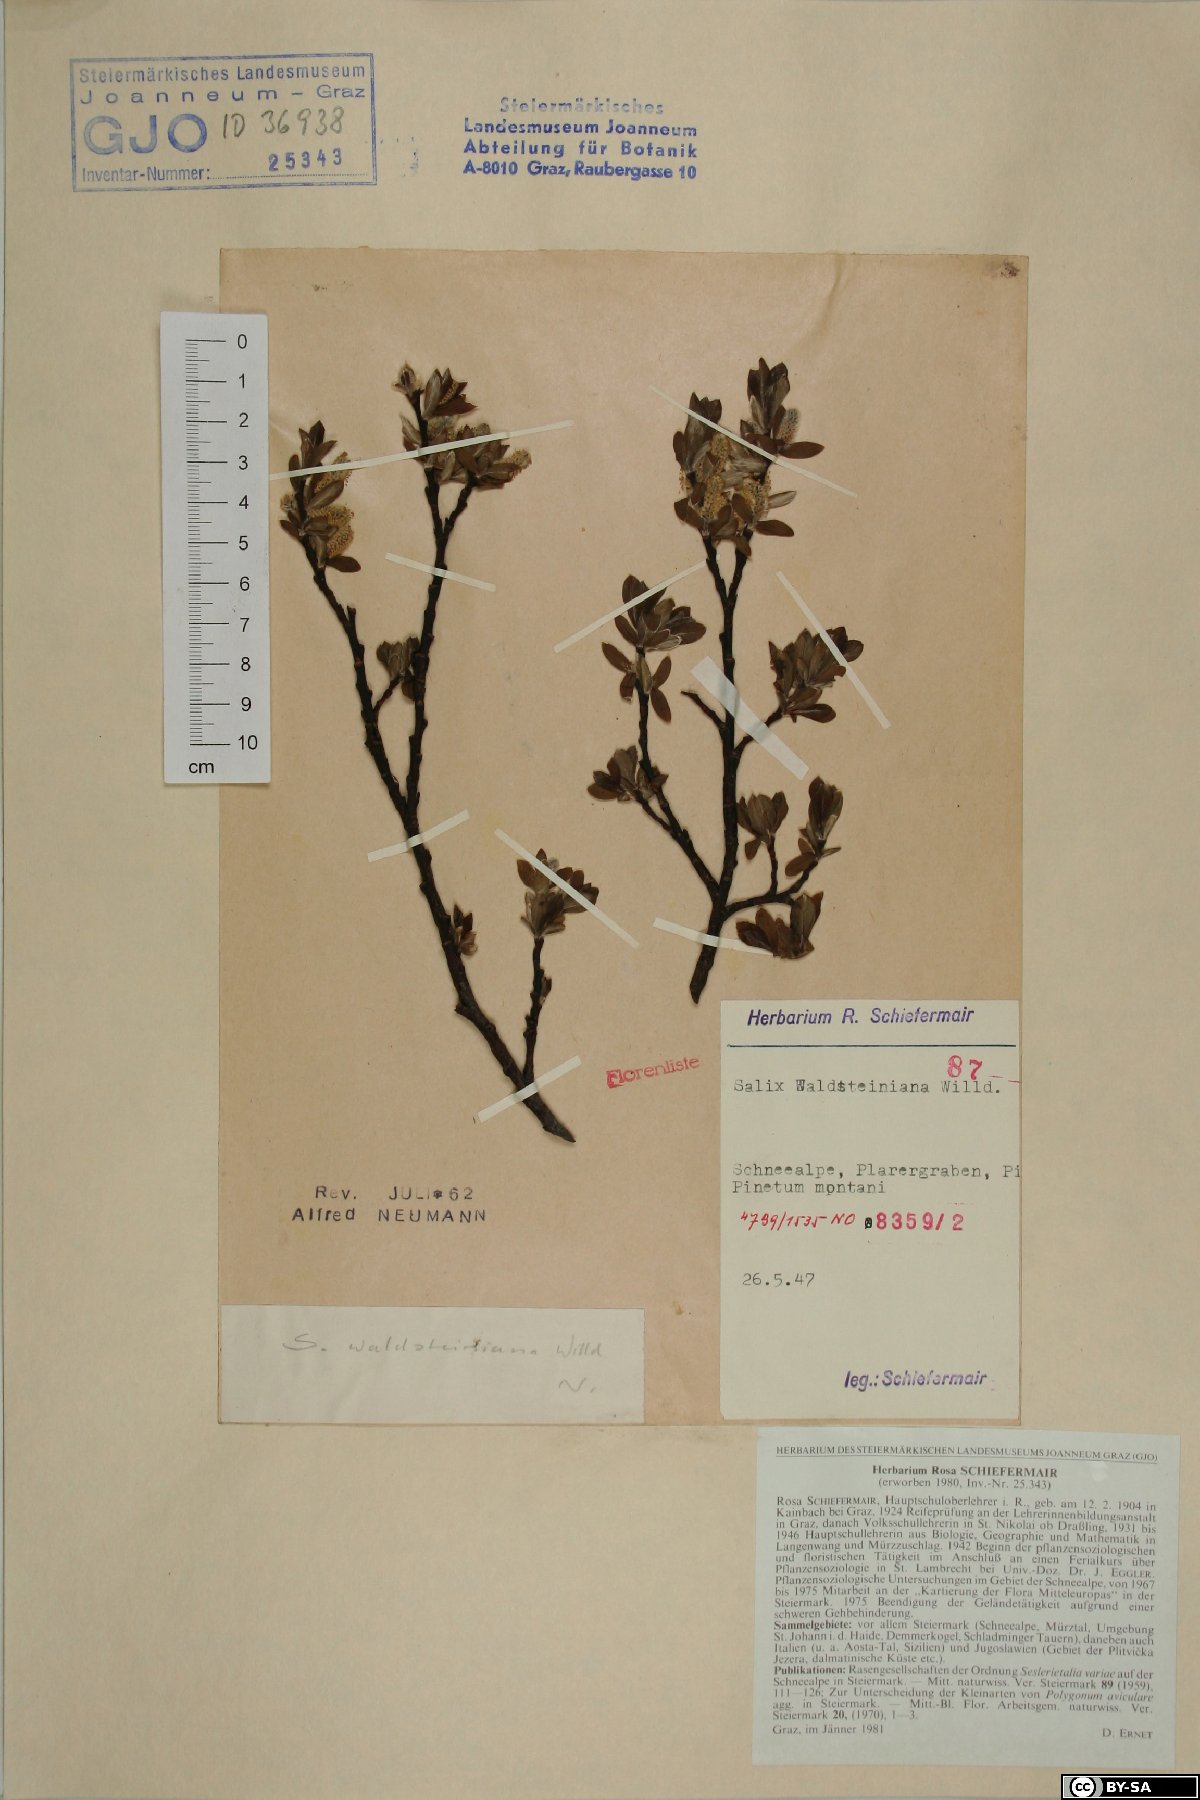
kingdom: Plantae
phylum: Tracheophyta
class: Magnoliopsida
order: Malpighiales
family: Salicaceae
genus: Salix
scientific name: Salix waldsteiniana
